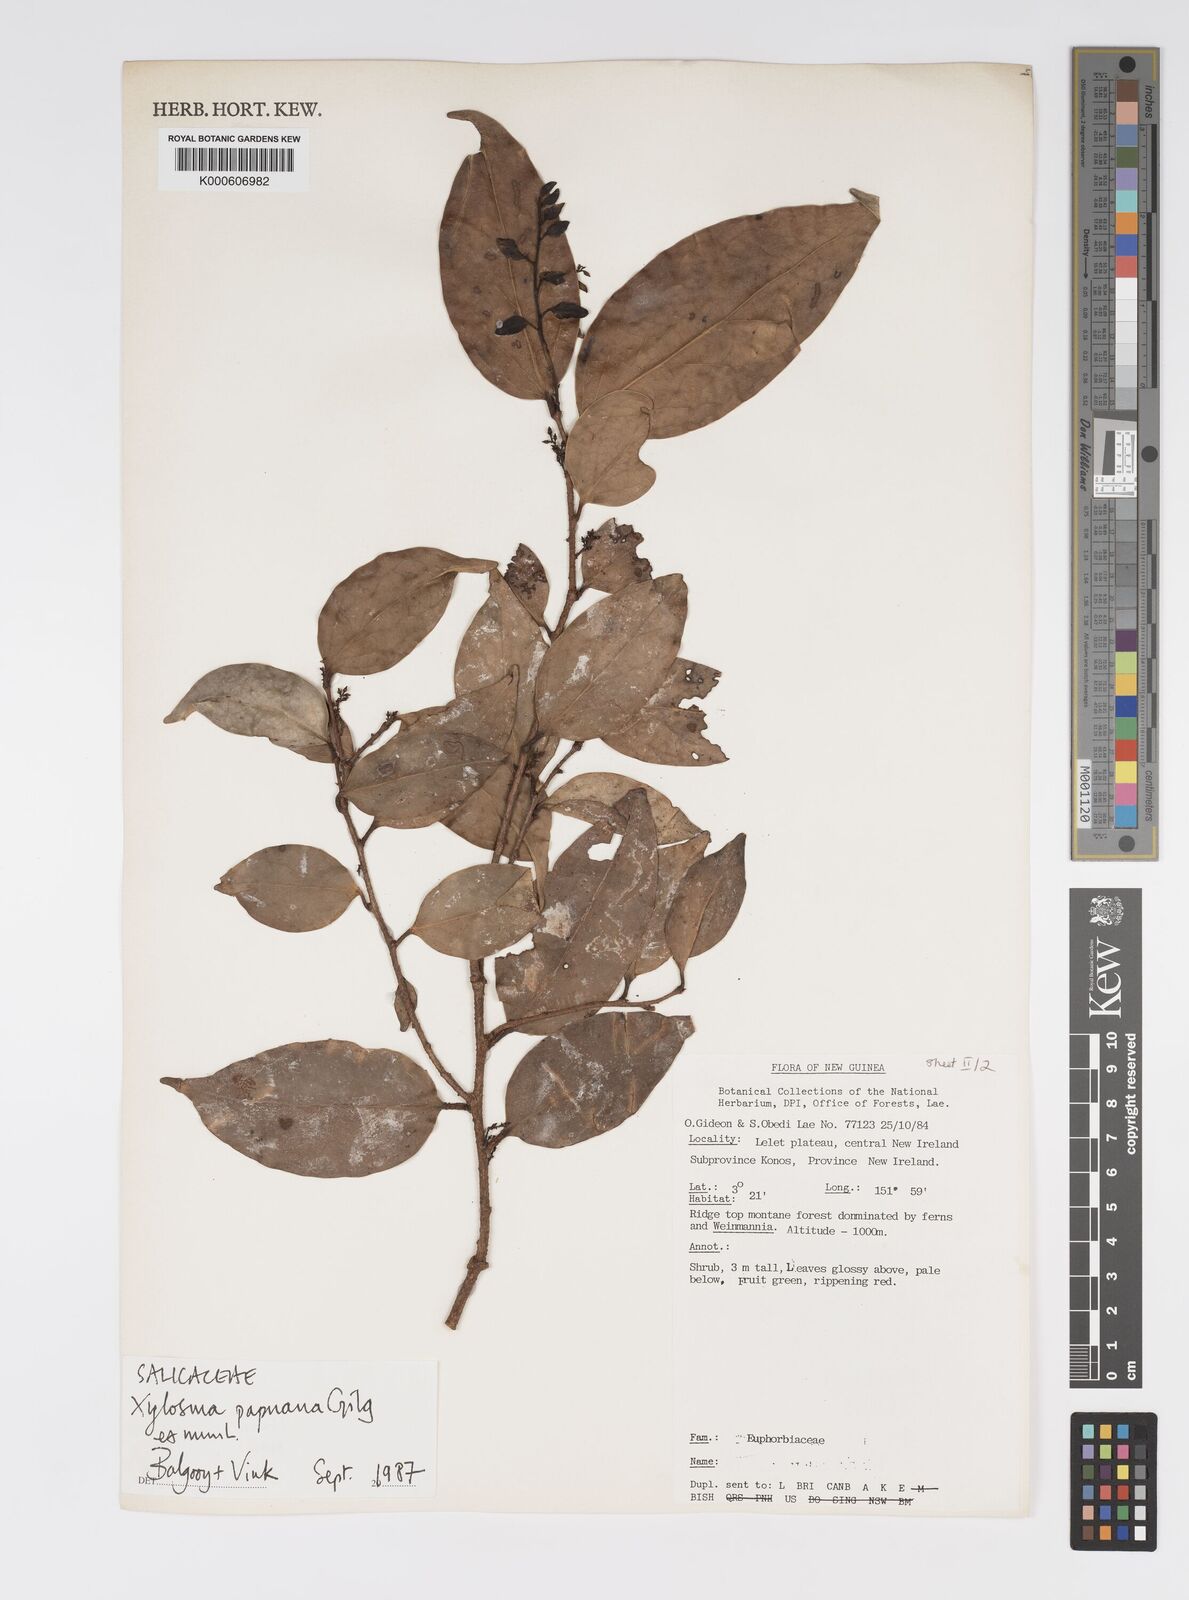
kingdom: Plantae
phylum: Tracheophyta
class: Magnoliopsida
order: Malpighiales
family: Salicaceae
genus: Xylosma
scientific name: Xylosma papuana
